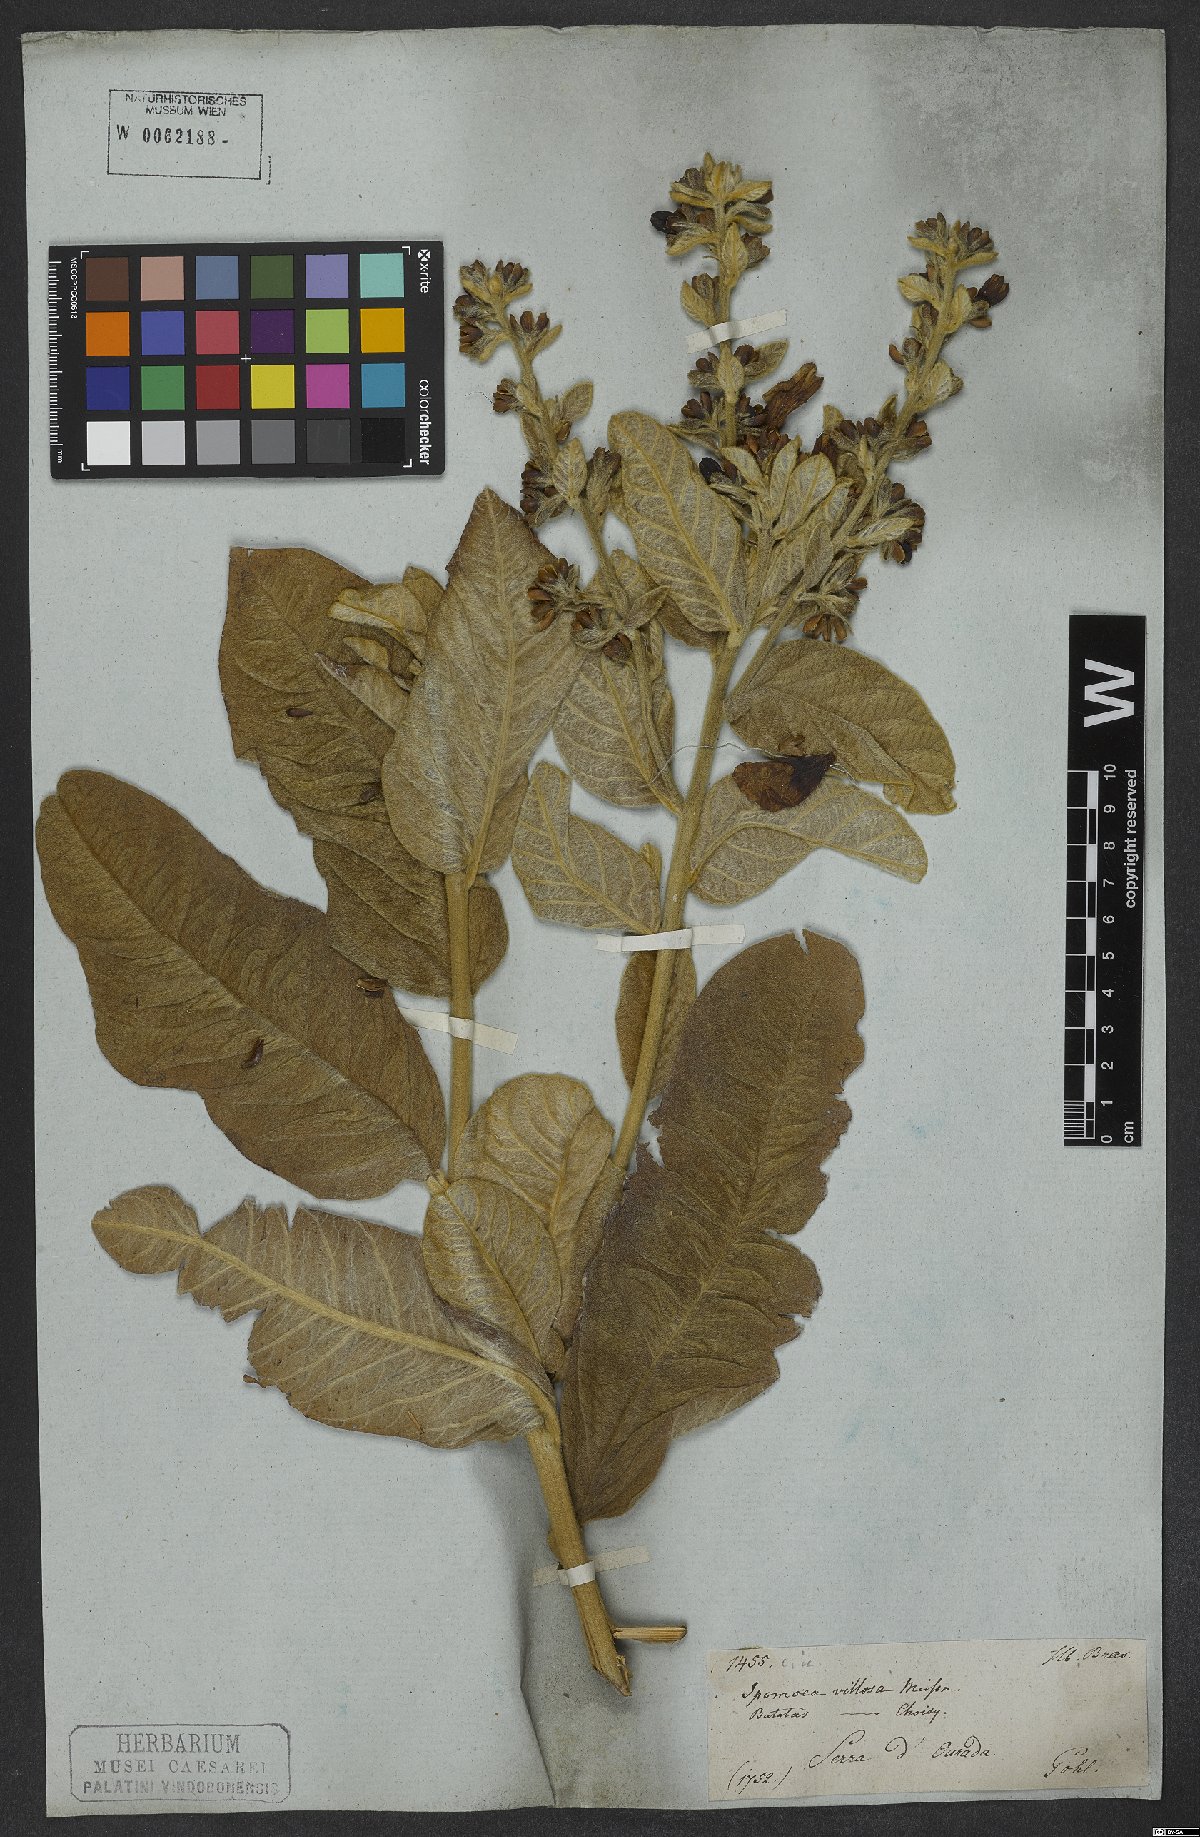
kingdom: Plantae
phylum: Tracheophyta
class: Magnoliopsida
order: Solanales
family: Convolvulaceae
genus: Ipomoea
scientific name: Ipomoea argentea
